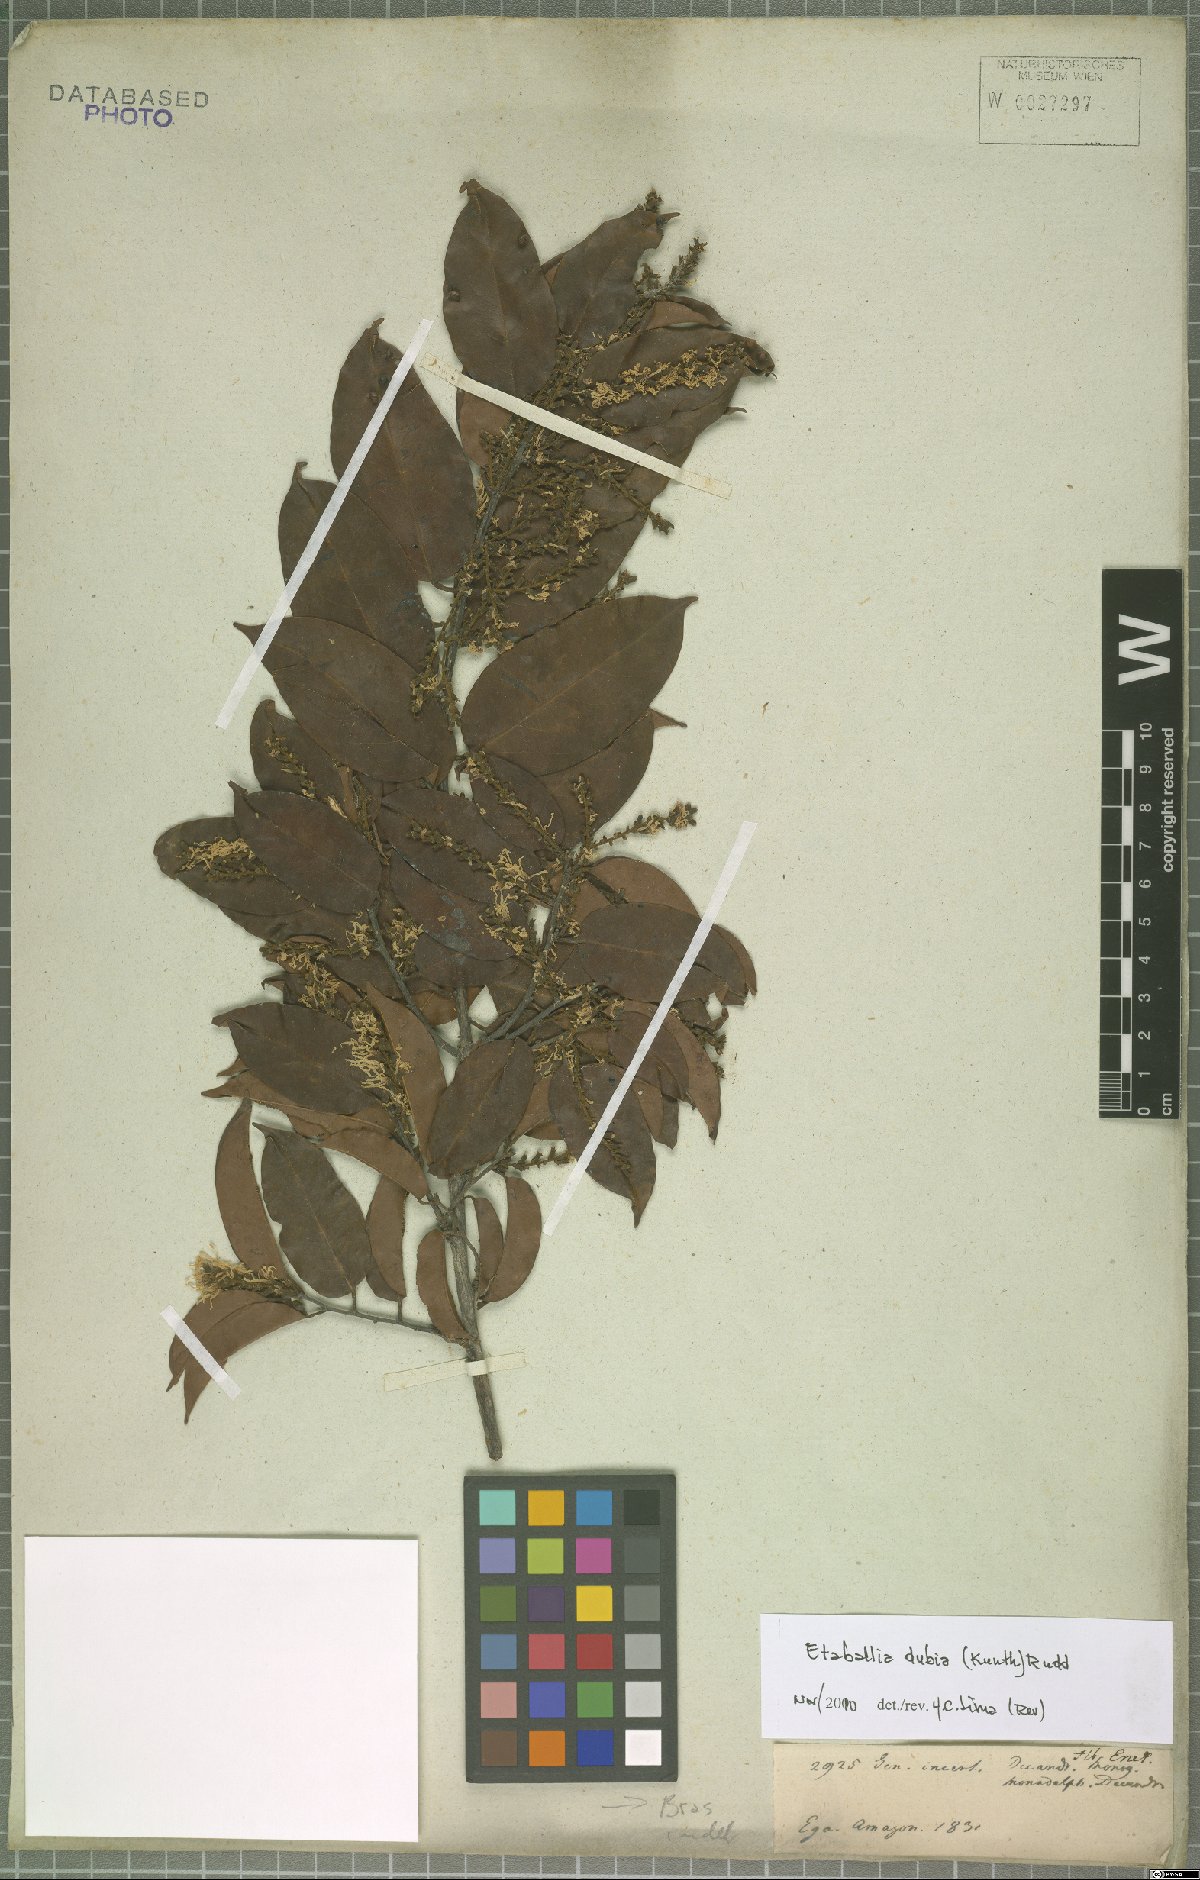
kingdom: Plantae
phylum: Tracheophyta
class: Magnoliopsida
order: Fabales
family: Fabaceae
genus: Pterocarpus
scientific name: Pterocarpus dubius
